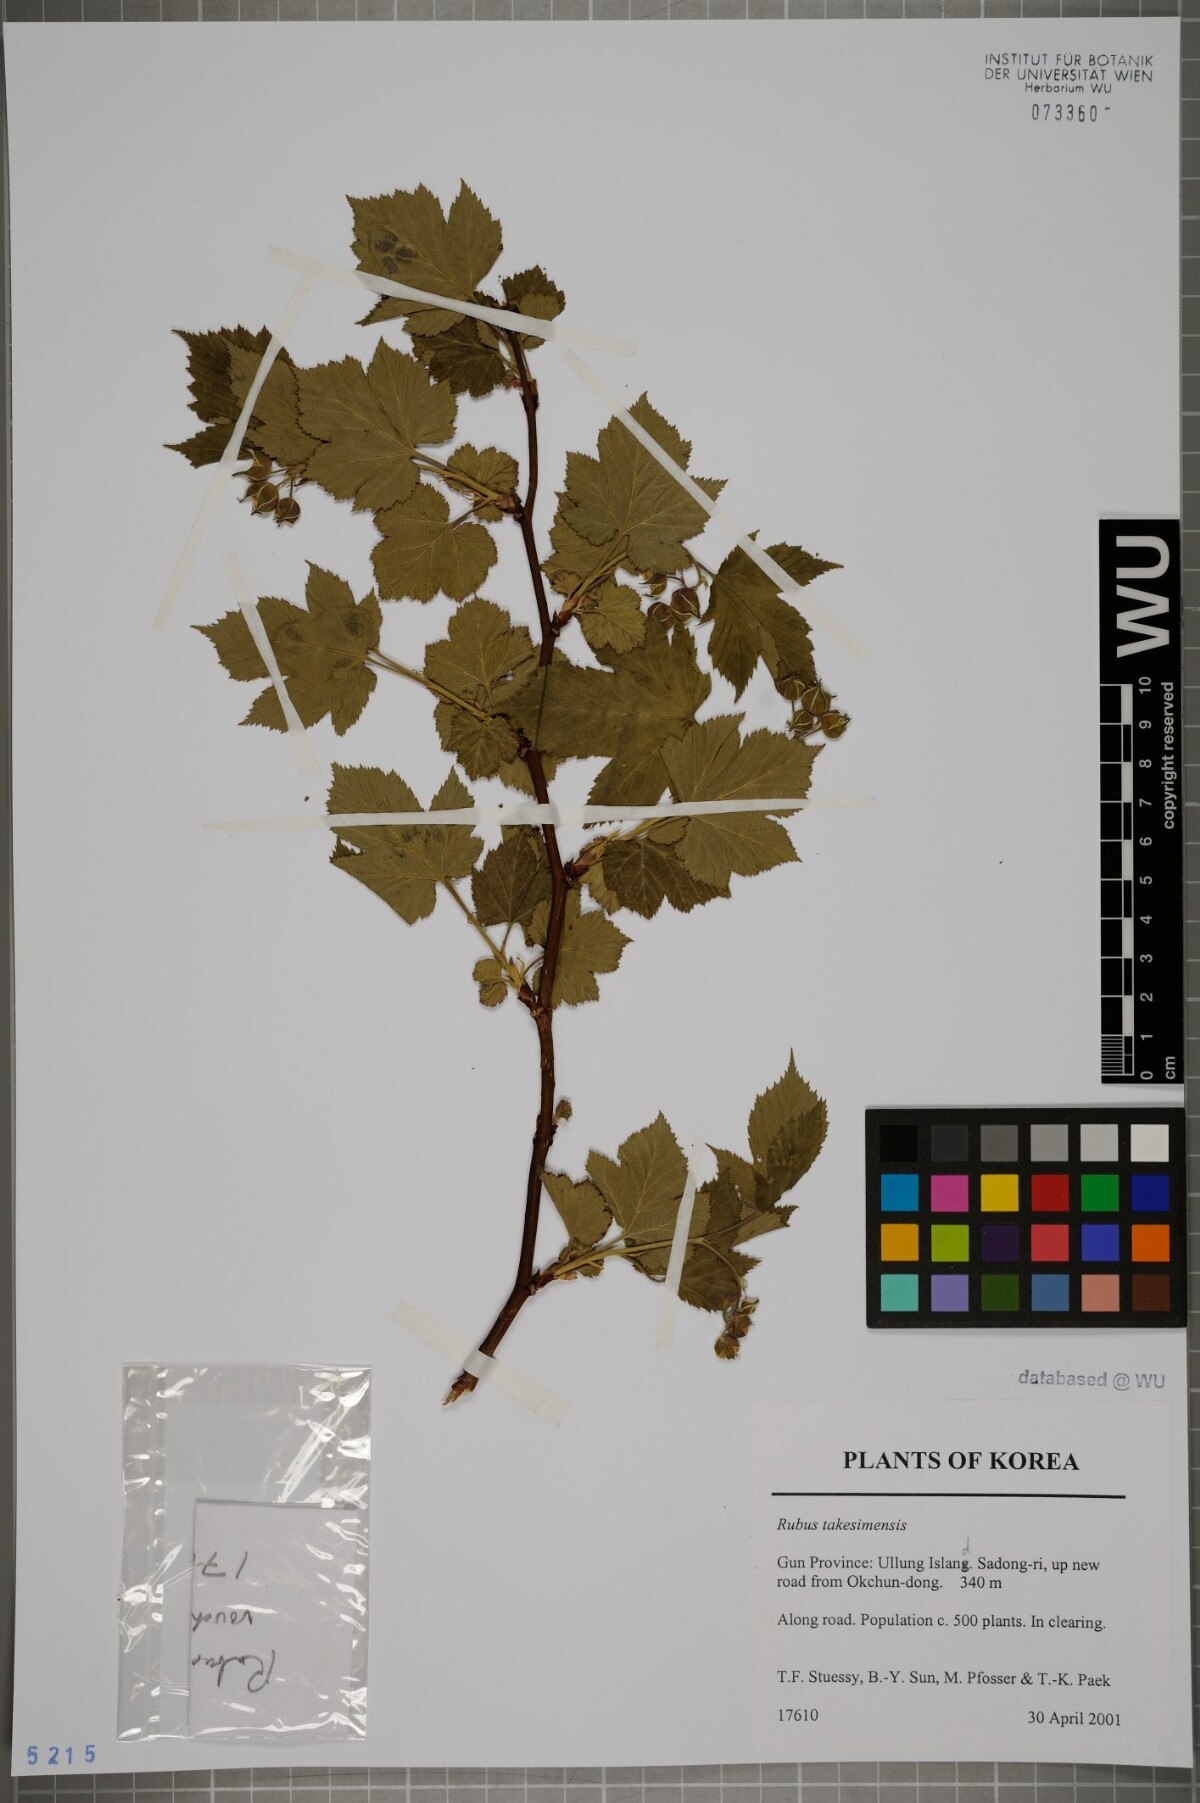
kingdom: Plantae
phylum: Tracheophyta
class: Magnoliopsida
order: Rosales
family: Rosaceae
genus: Rubus
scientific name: Rubus crataegifolius
